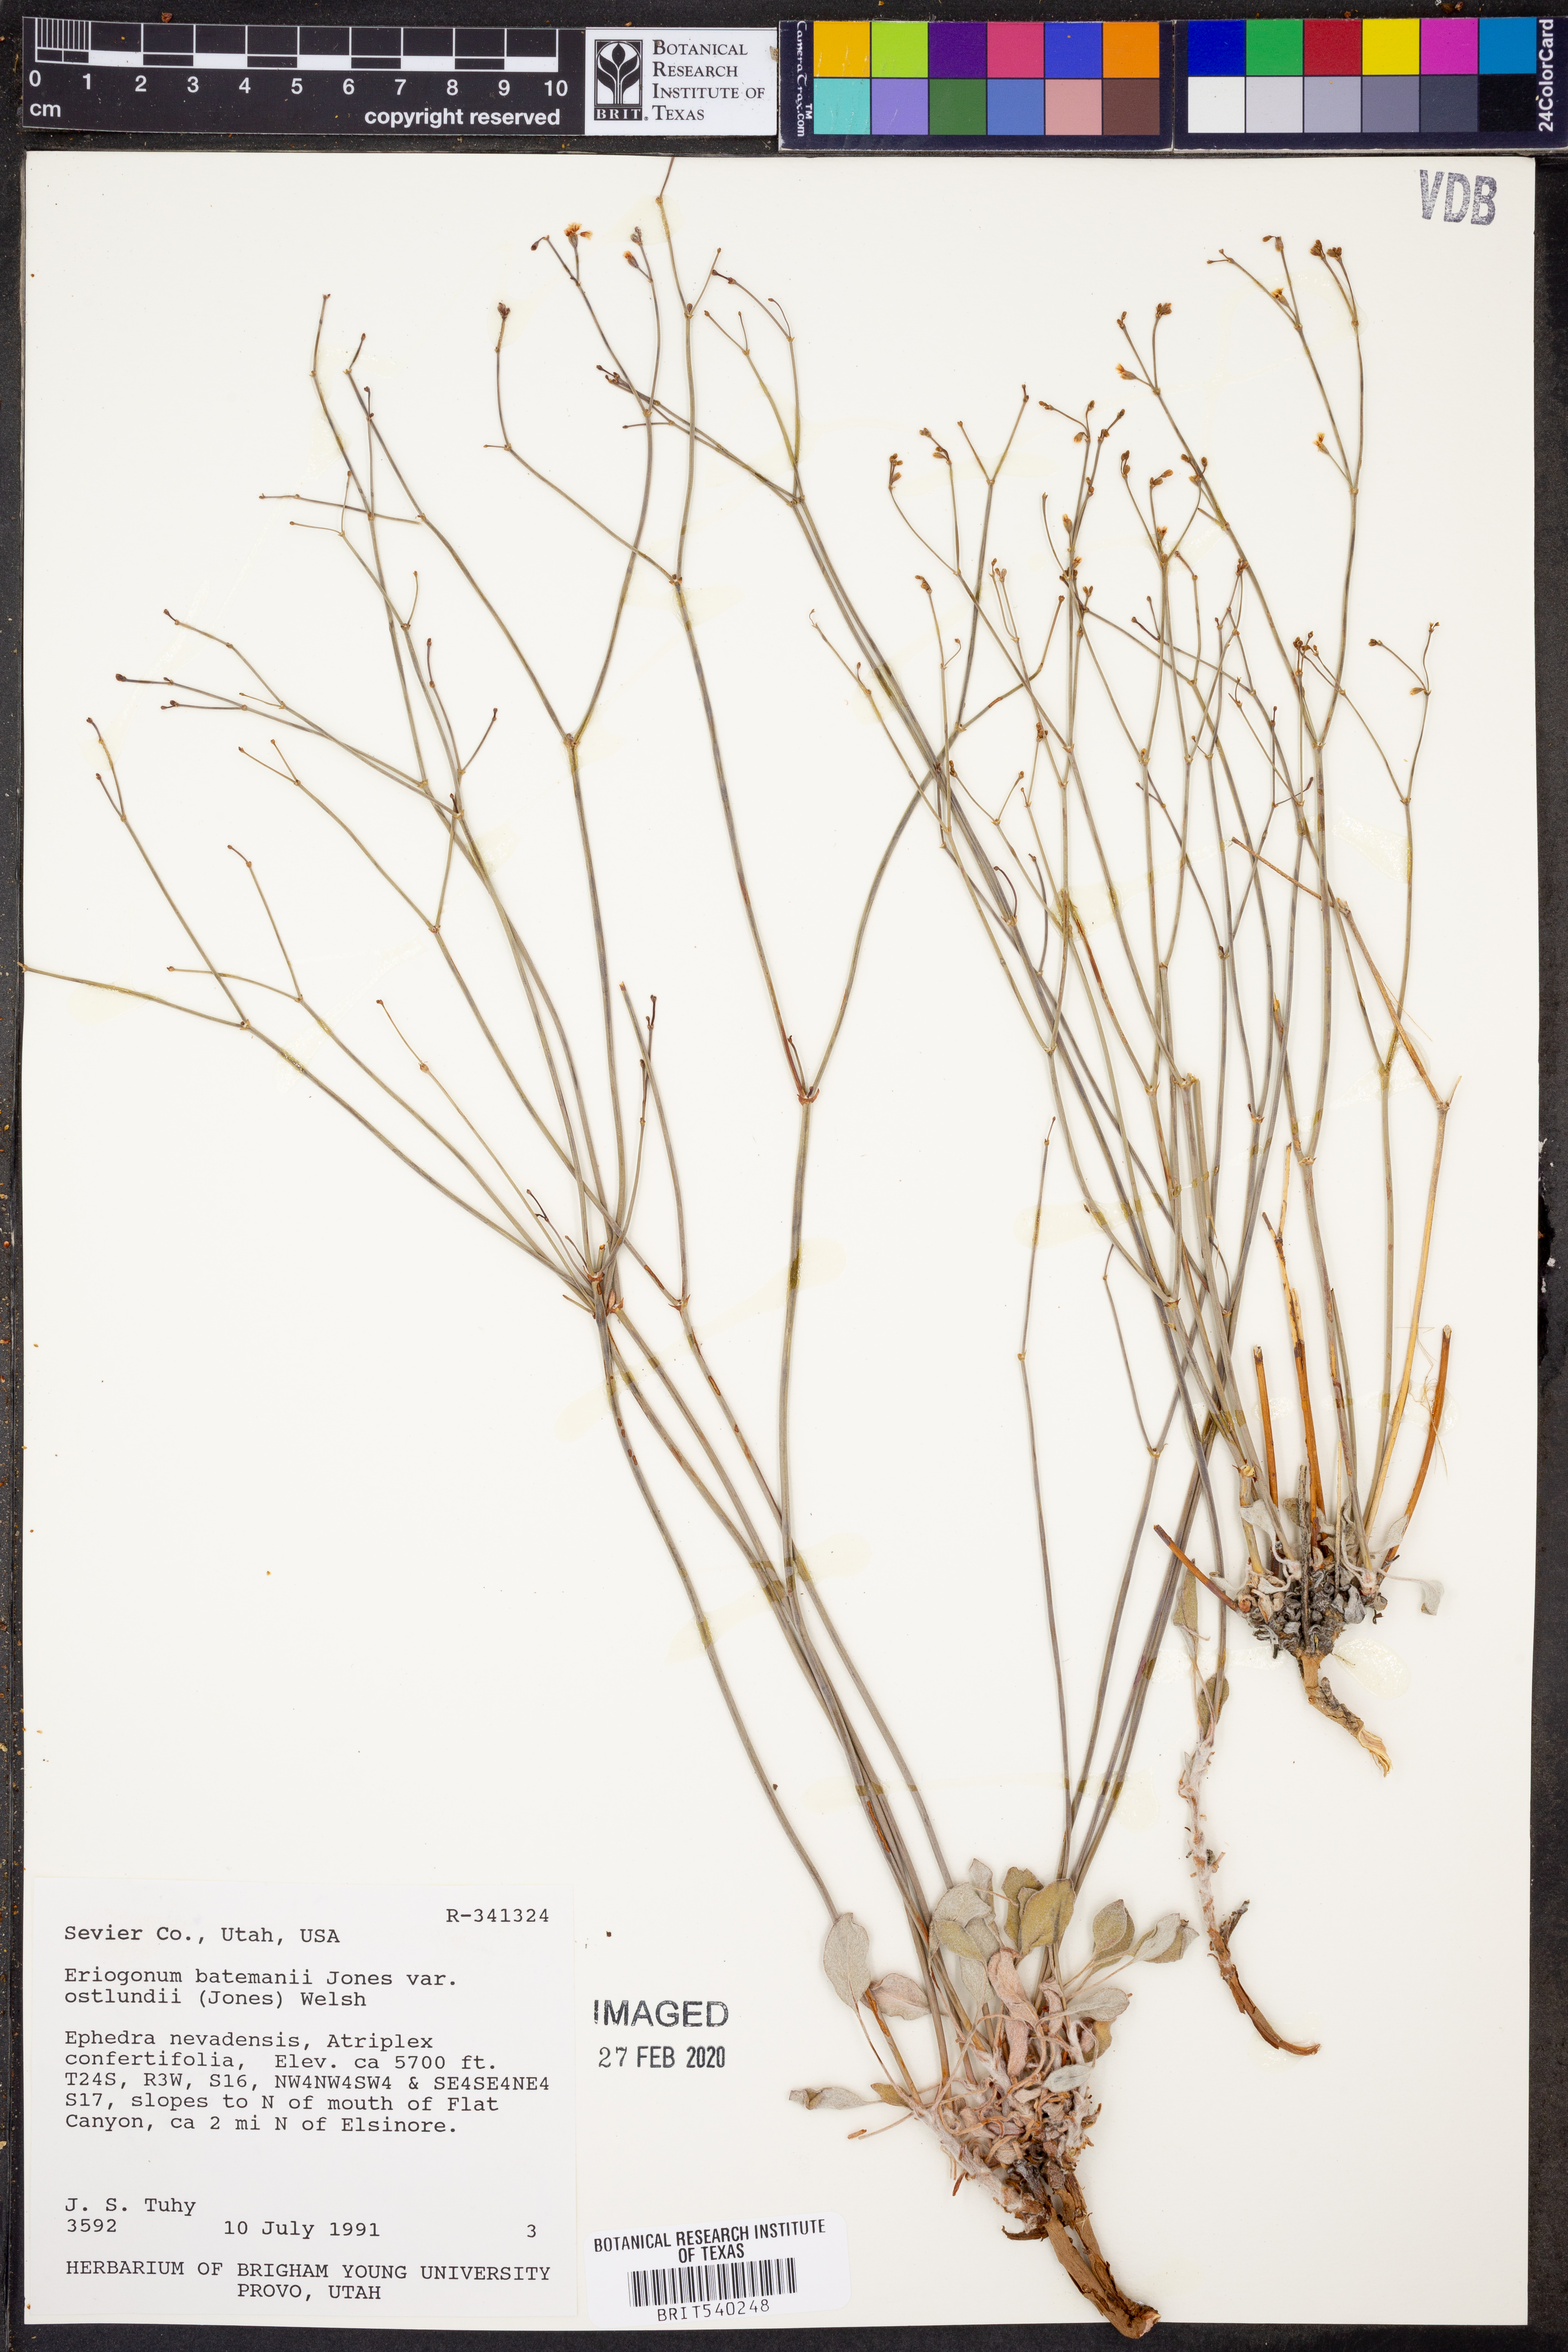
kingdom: Plantae
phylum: Tracheophyta
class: Magnoliopsida
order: Caryophyllales
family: Polygonaceae
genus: Eriogonum
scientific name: Eriogonum ostlundii
